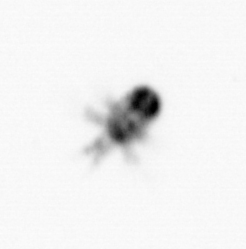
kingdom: Animalia
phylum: Arthropoda
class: Copepoda
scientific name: Copepoda
